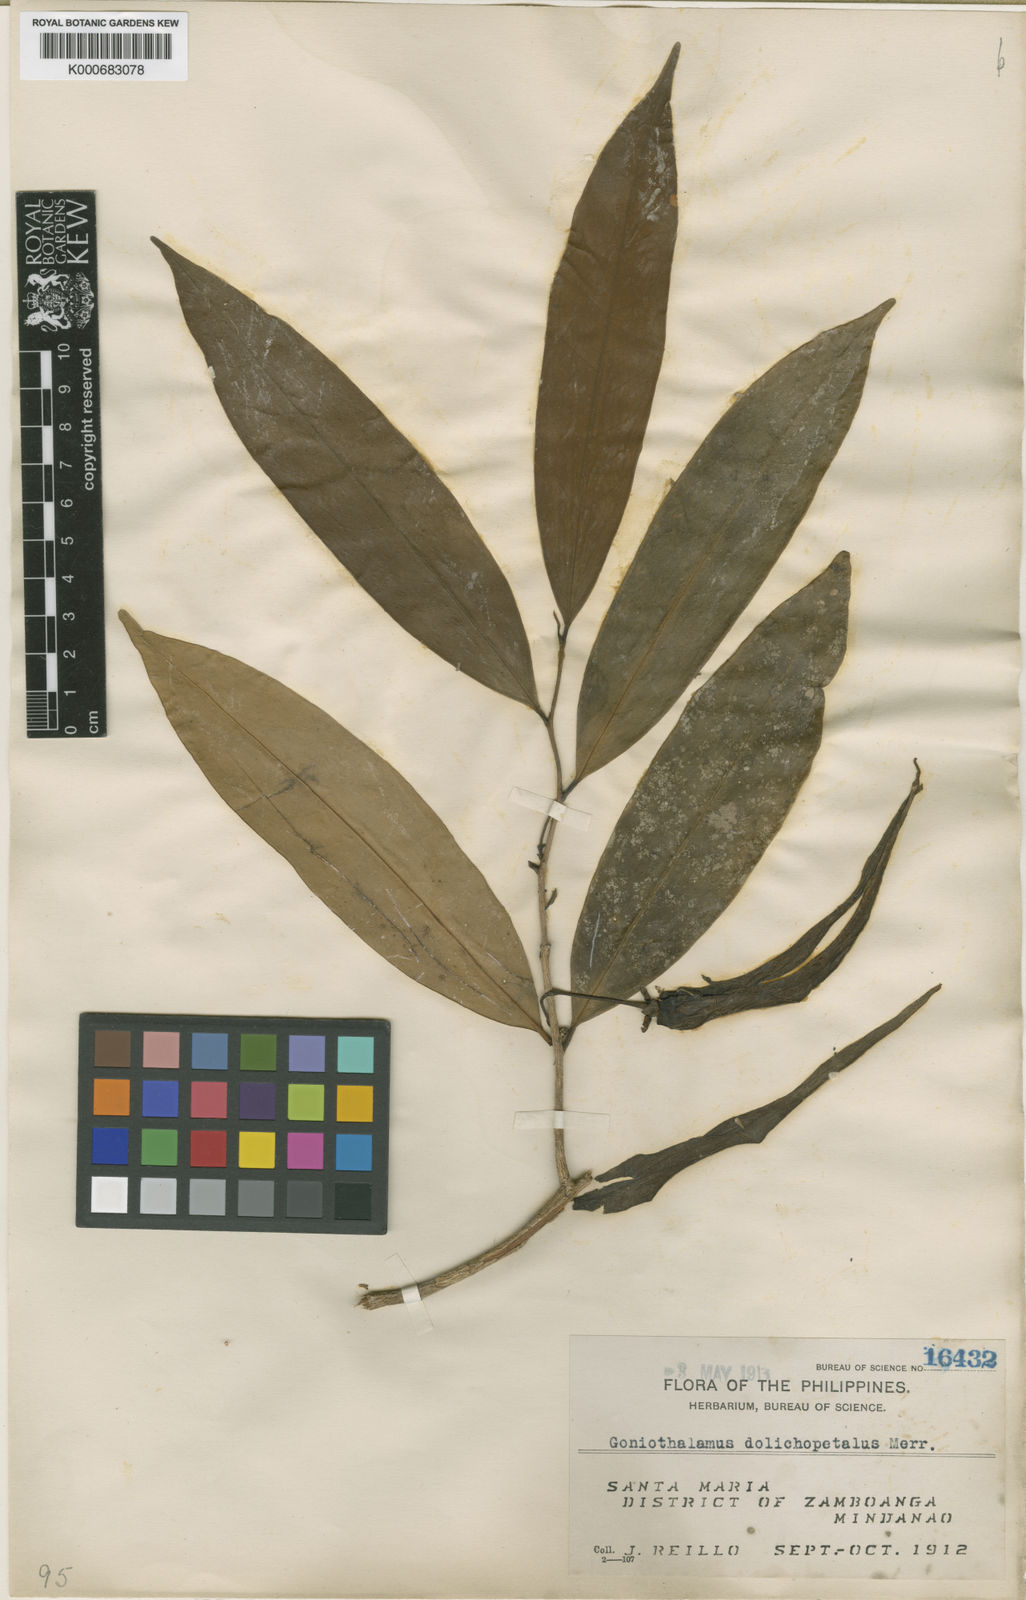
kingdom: Plantae
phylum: Tracheophyta
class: Magnoliopsida
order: Magnoliales
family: Annonaceae
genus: Goniothalamus
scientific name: Goniothalamus dolichopetalus
